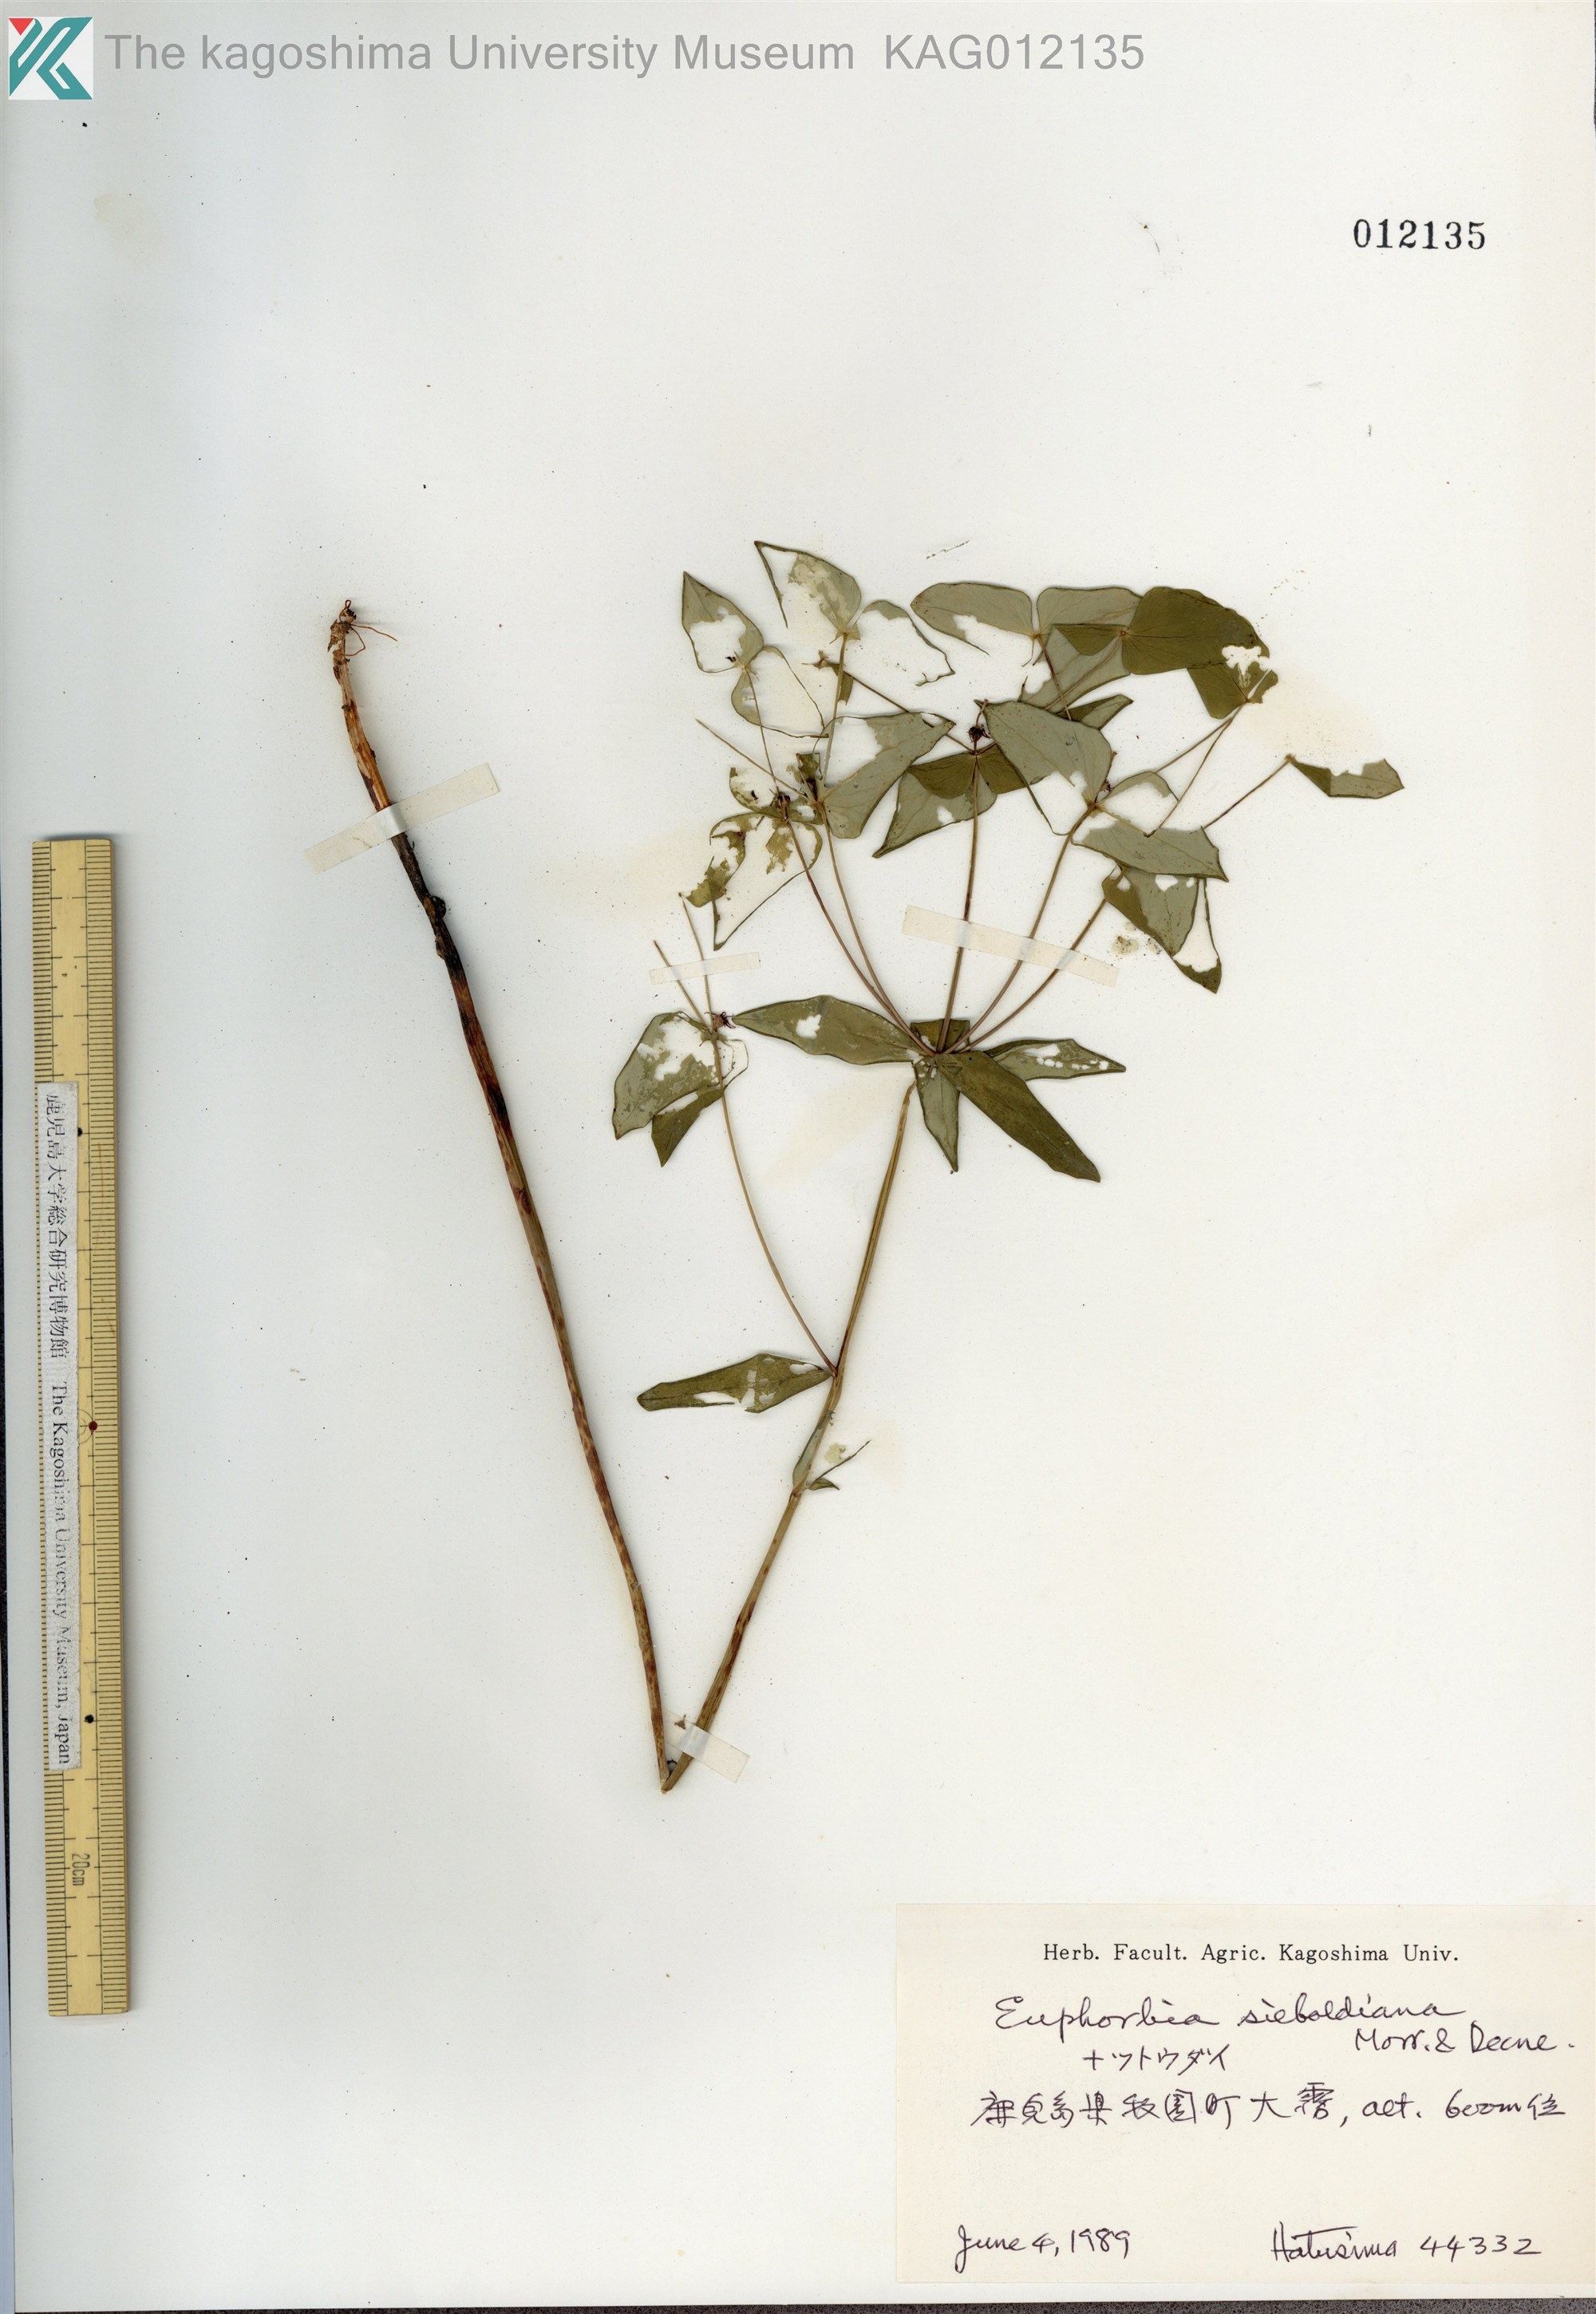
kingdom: Plantae
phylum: Tracheophyta
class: Magnoliopsida
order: Malpighiales
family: Euphorbiaceae
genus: Euphorbia
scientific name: Euphorbia sieboldiana
